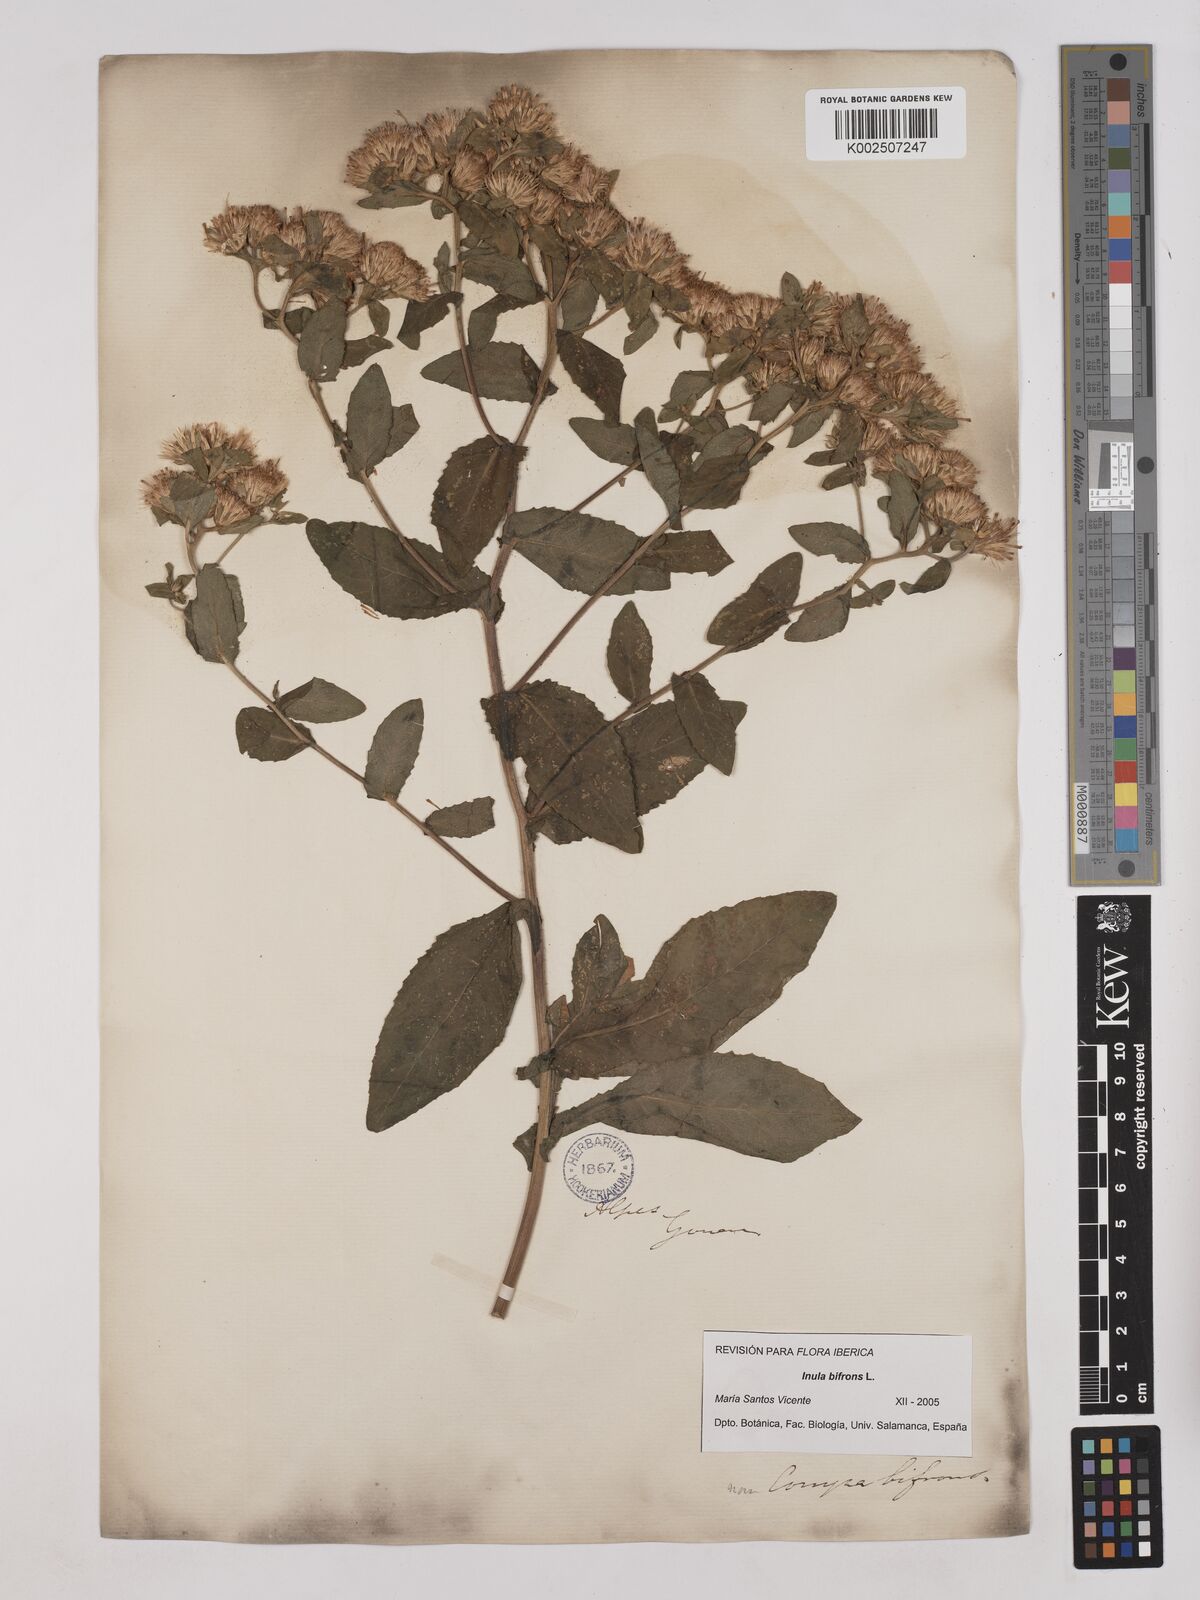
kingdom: Plantae
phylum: Tracheophyta
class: Magnoliopsida
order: Asterales
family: Asteraceae
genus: Pentanema
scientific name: Pentanema bifrons
